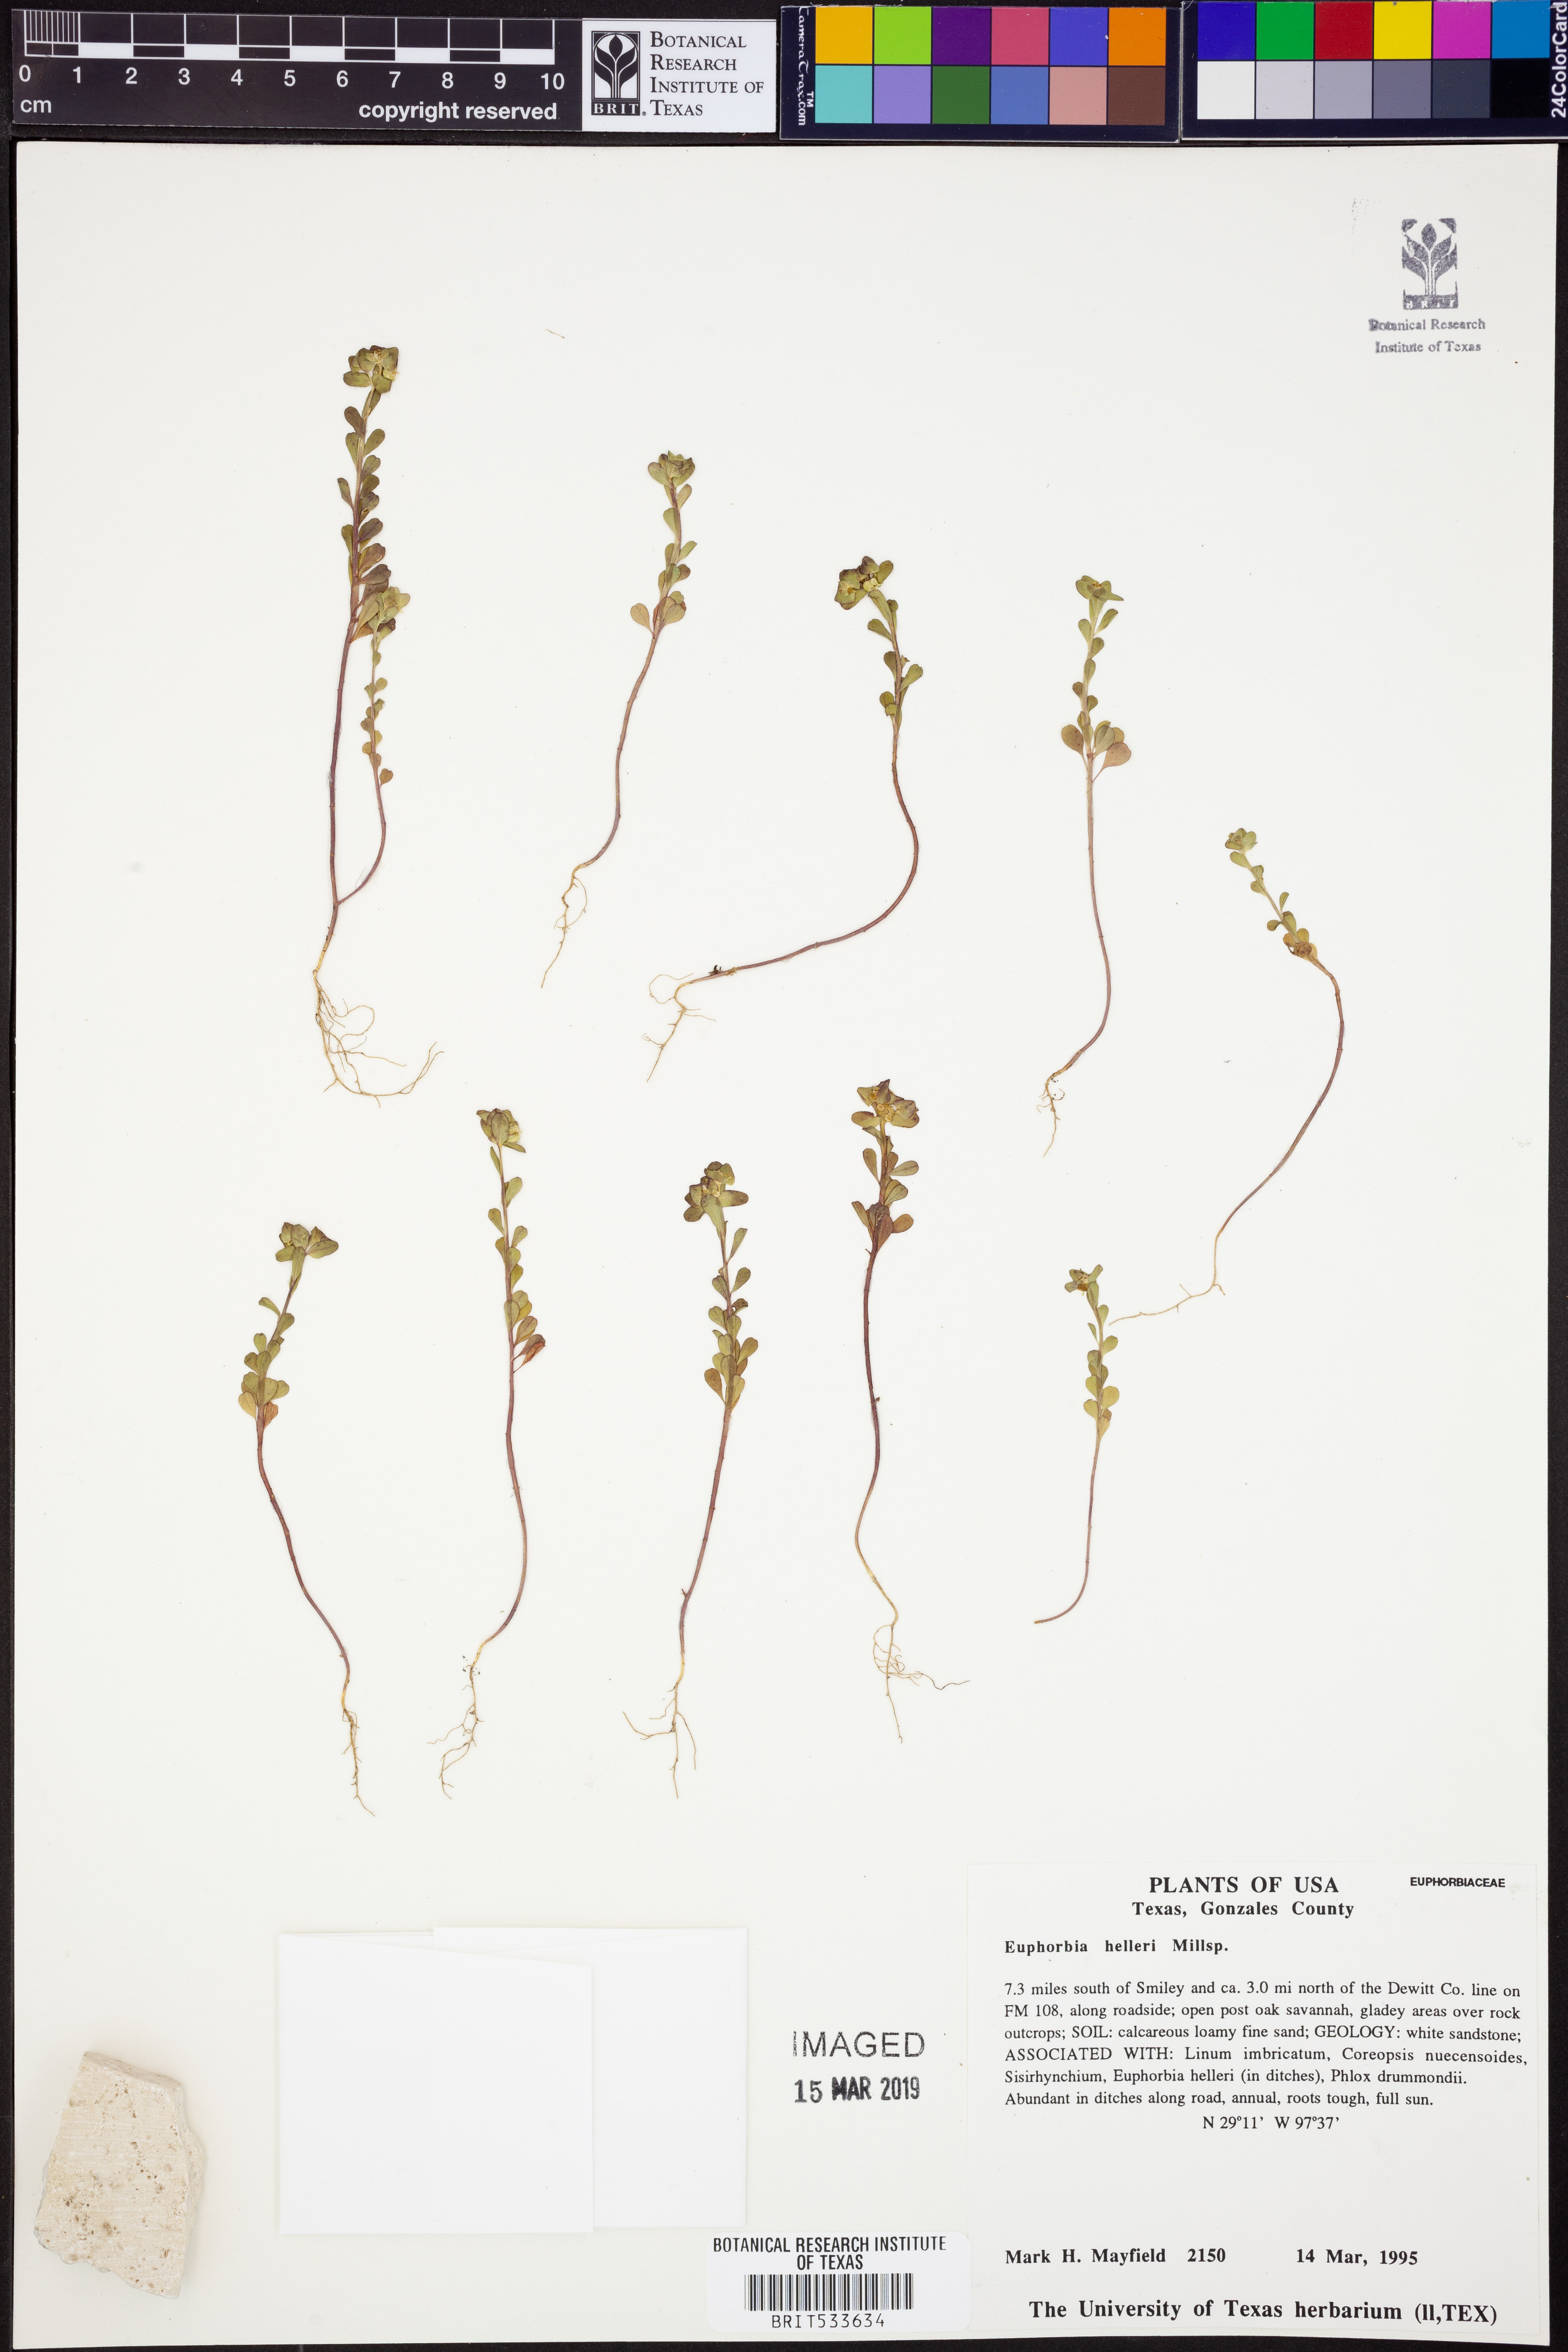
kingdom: Plantae
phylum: Tracheophyta
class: Magnoliopsida
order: Malpighiales
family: Euphorbiaceae
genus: Euphorbia
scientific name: Euphorbia helleri
